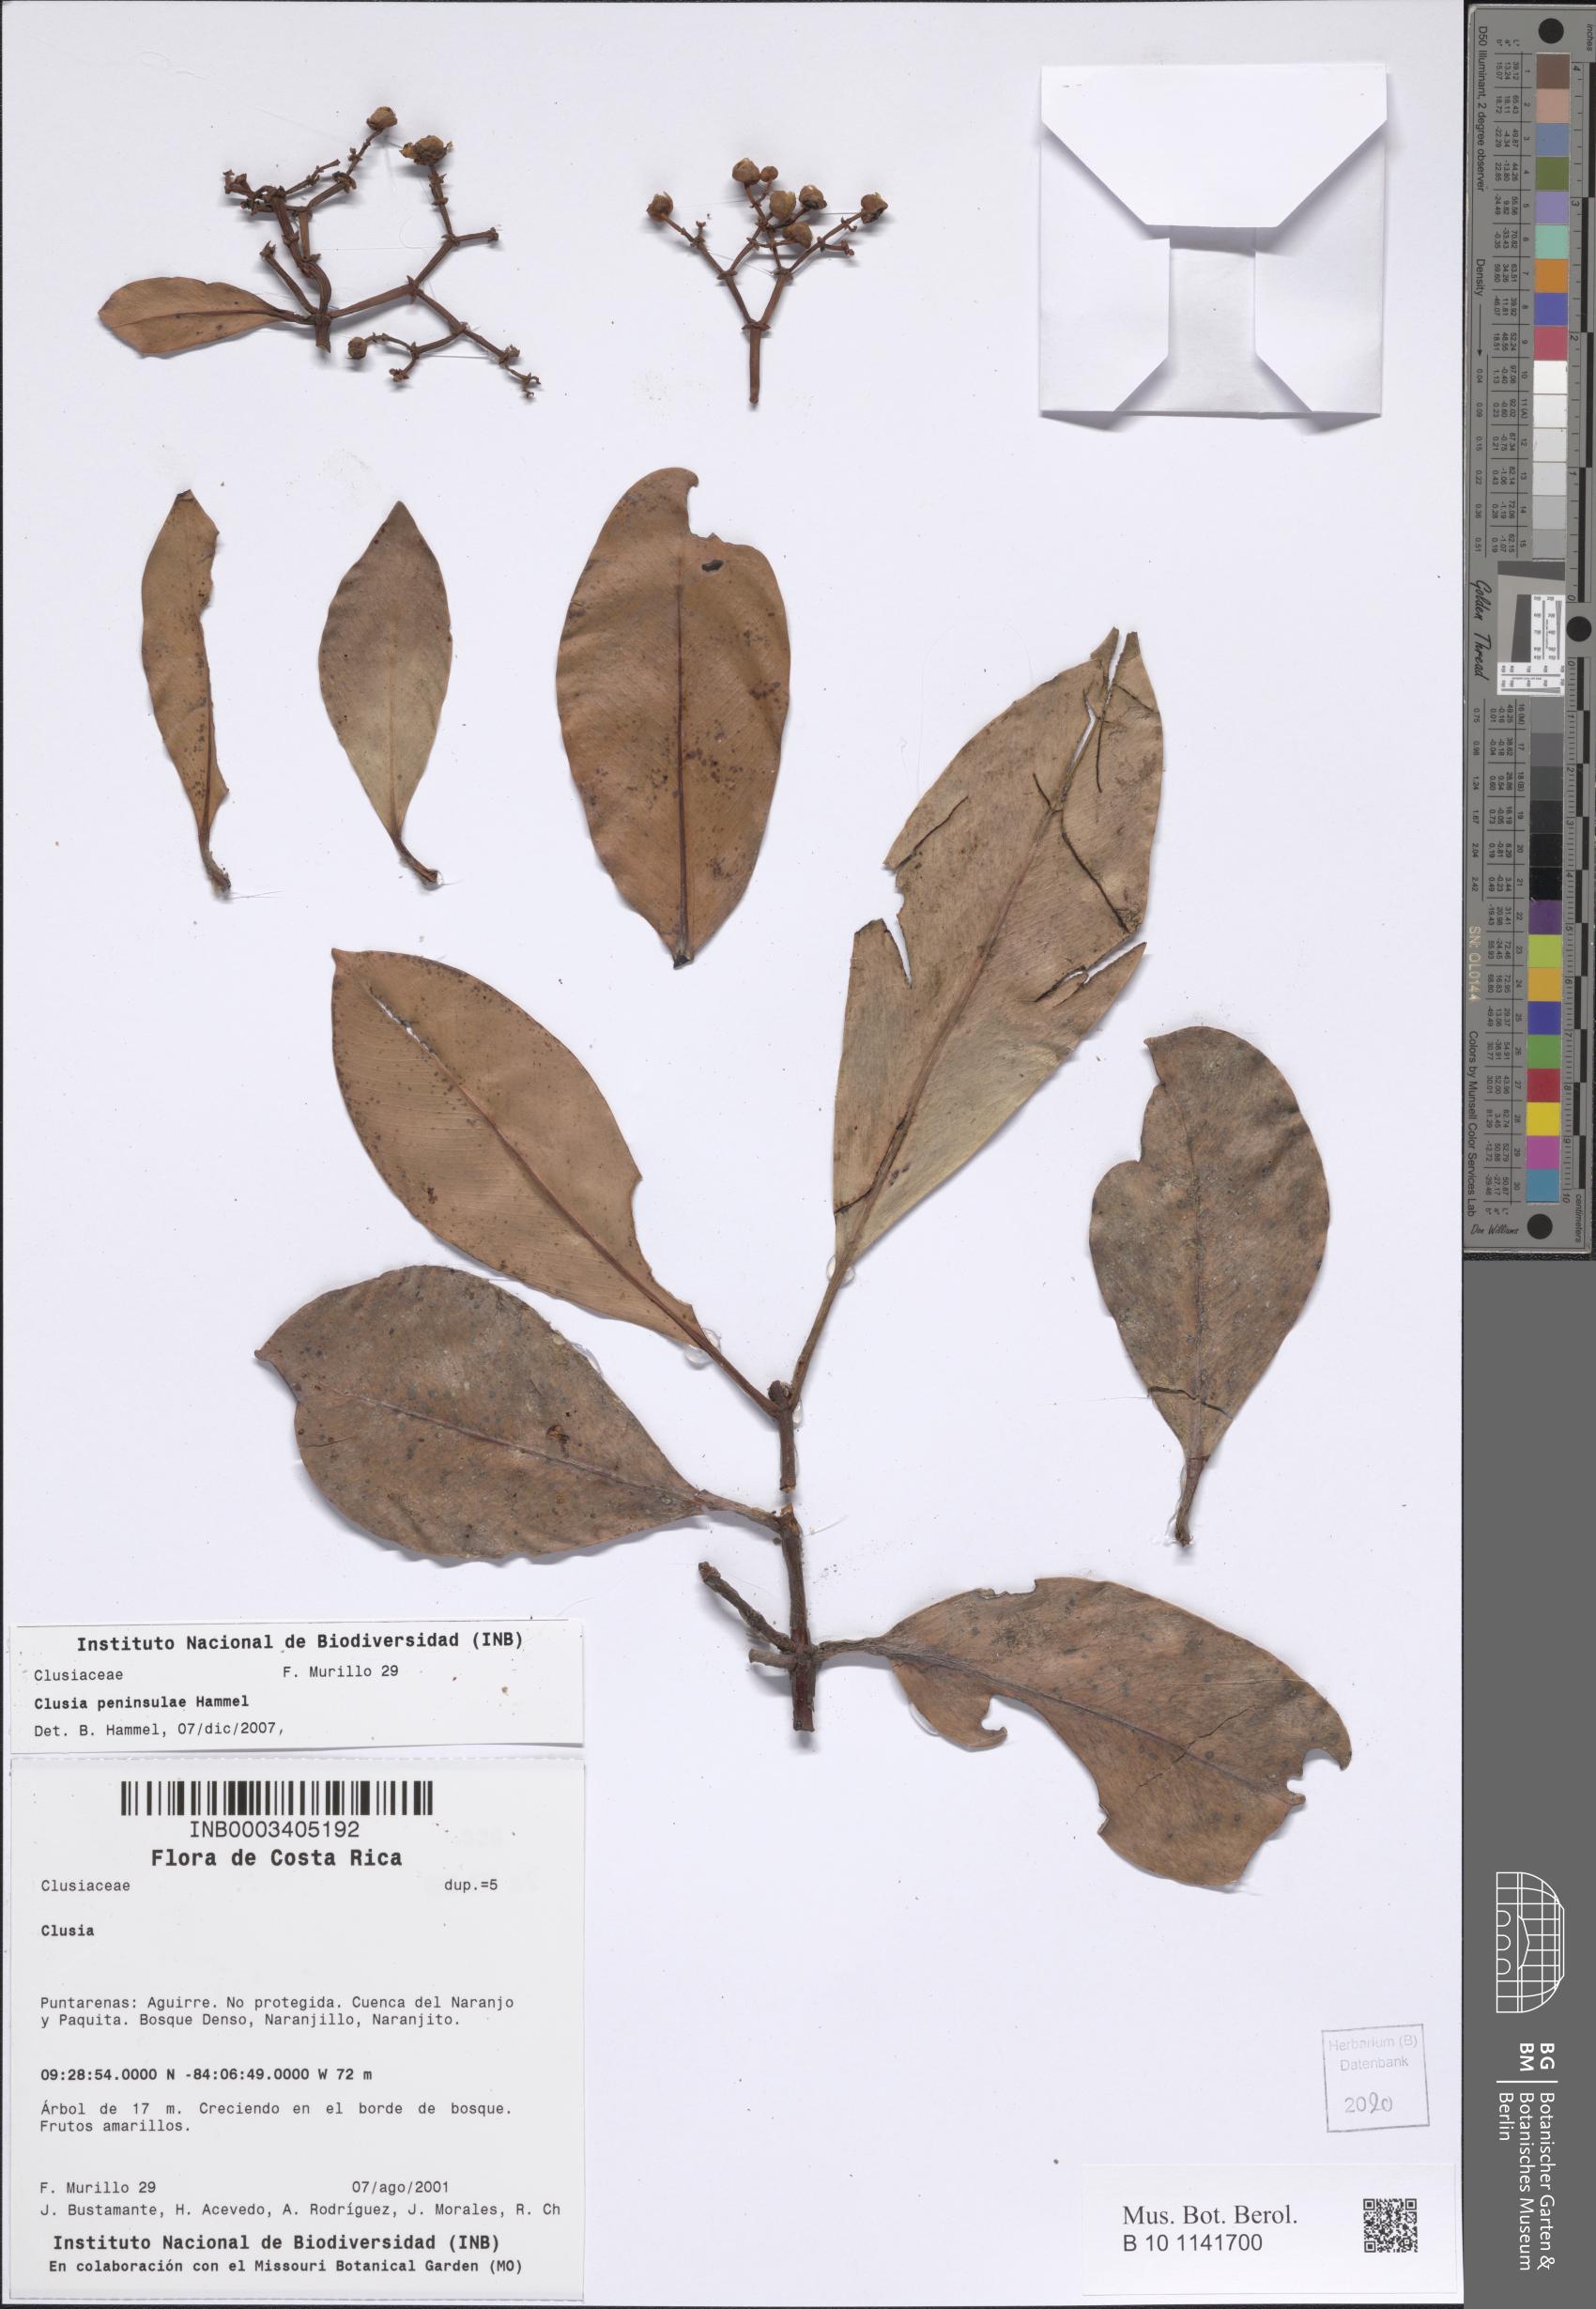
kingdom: Plantae
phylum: Tracheophyta
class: Magnoliopsida
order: Malpighiales
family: Clusiaceae
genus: Clusia
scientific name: Clusia
